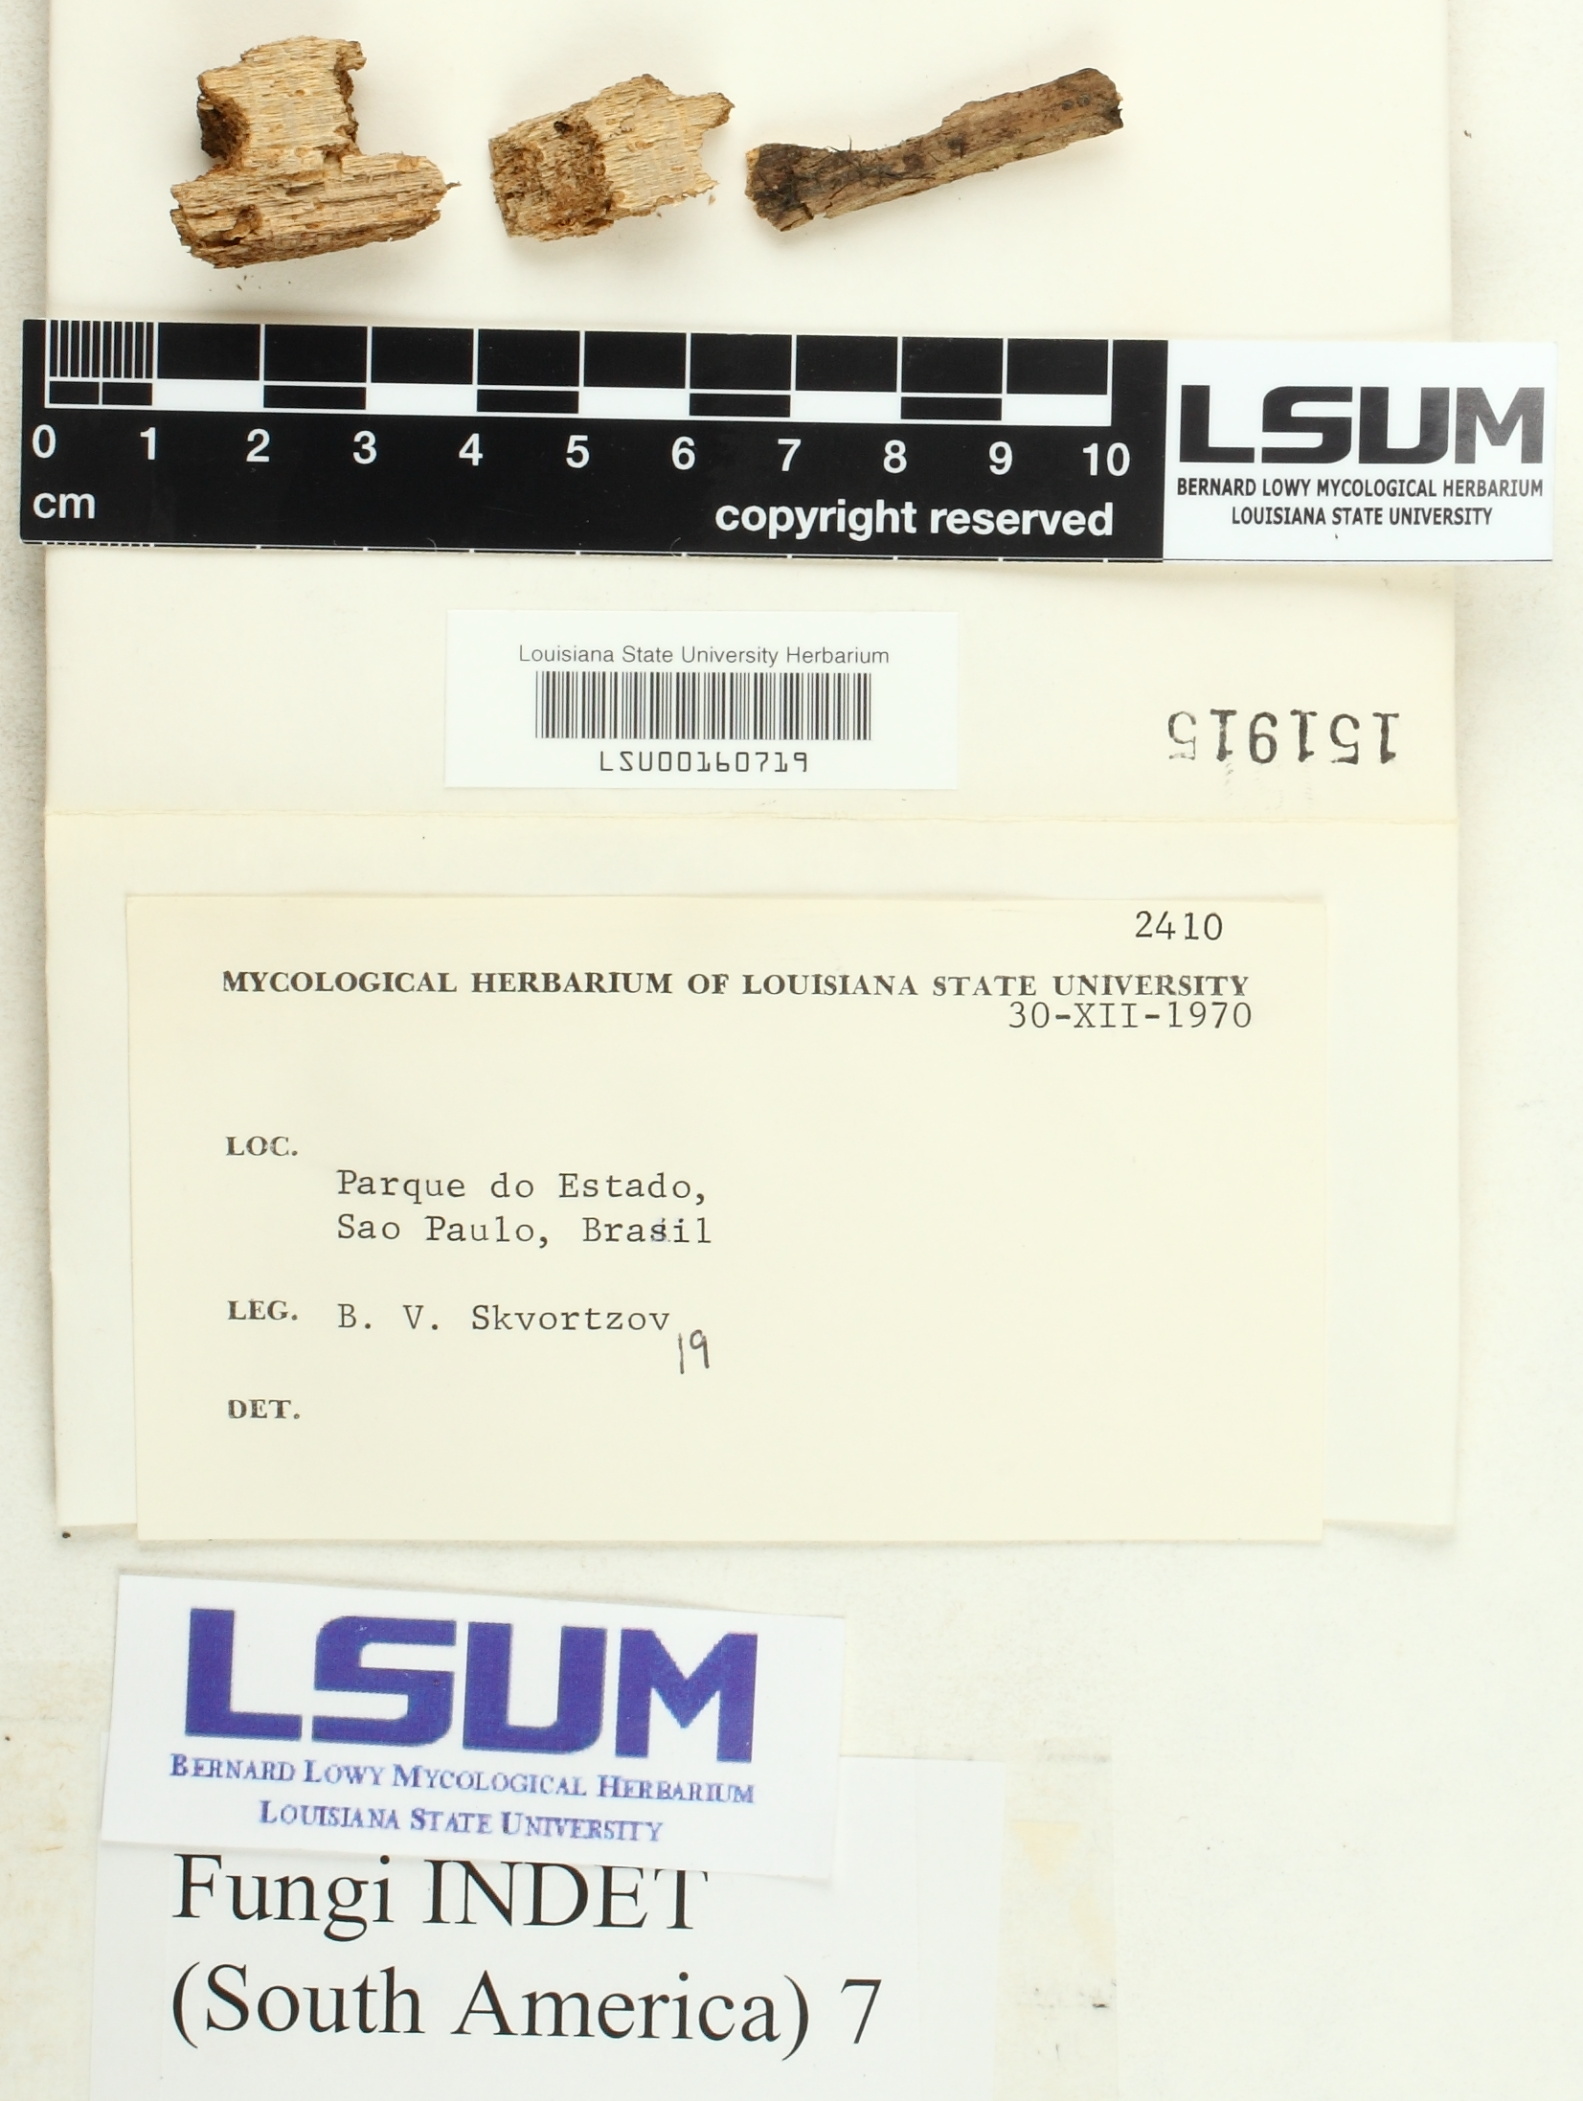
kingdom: Fungi
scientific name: Fungi
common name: Fungi
